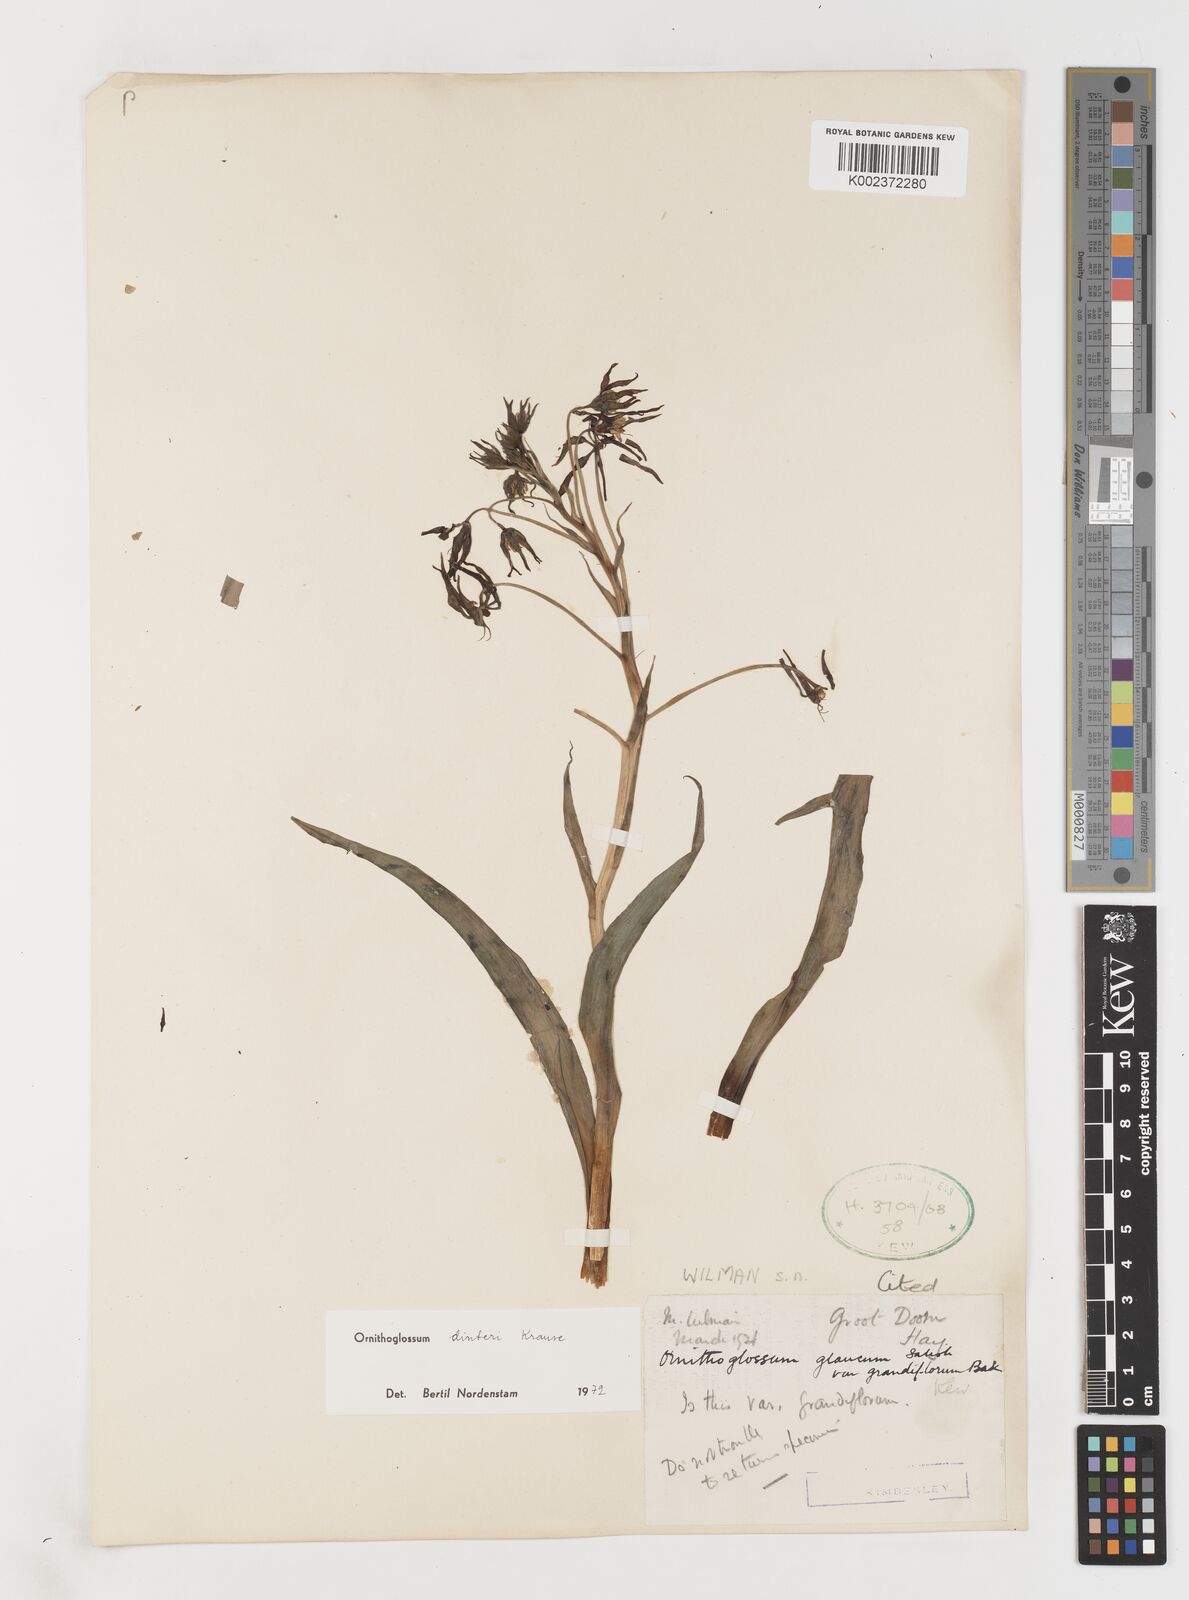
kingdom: Plantae
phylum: Tracheophyta
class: Liliopsida
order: Liliales
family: Colchicaceae
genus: Ornithoglossum
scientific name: Ornithoglossum dinteri
